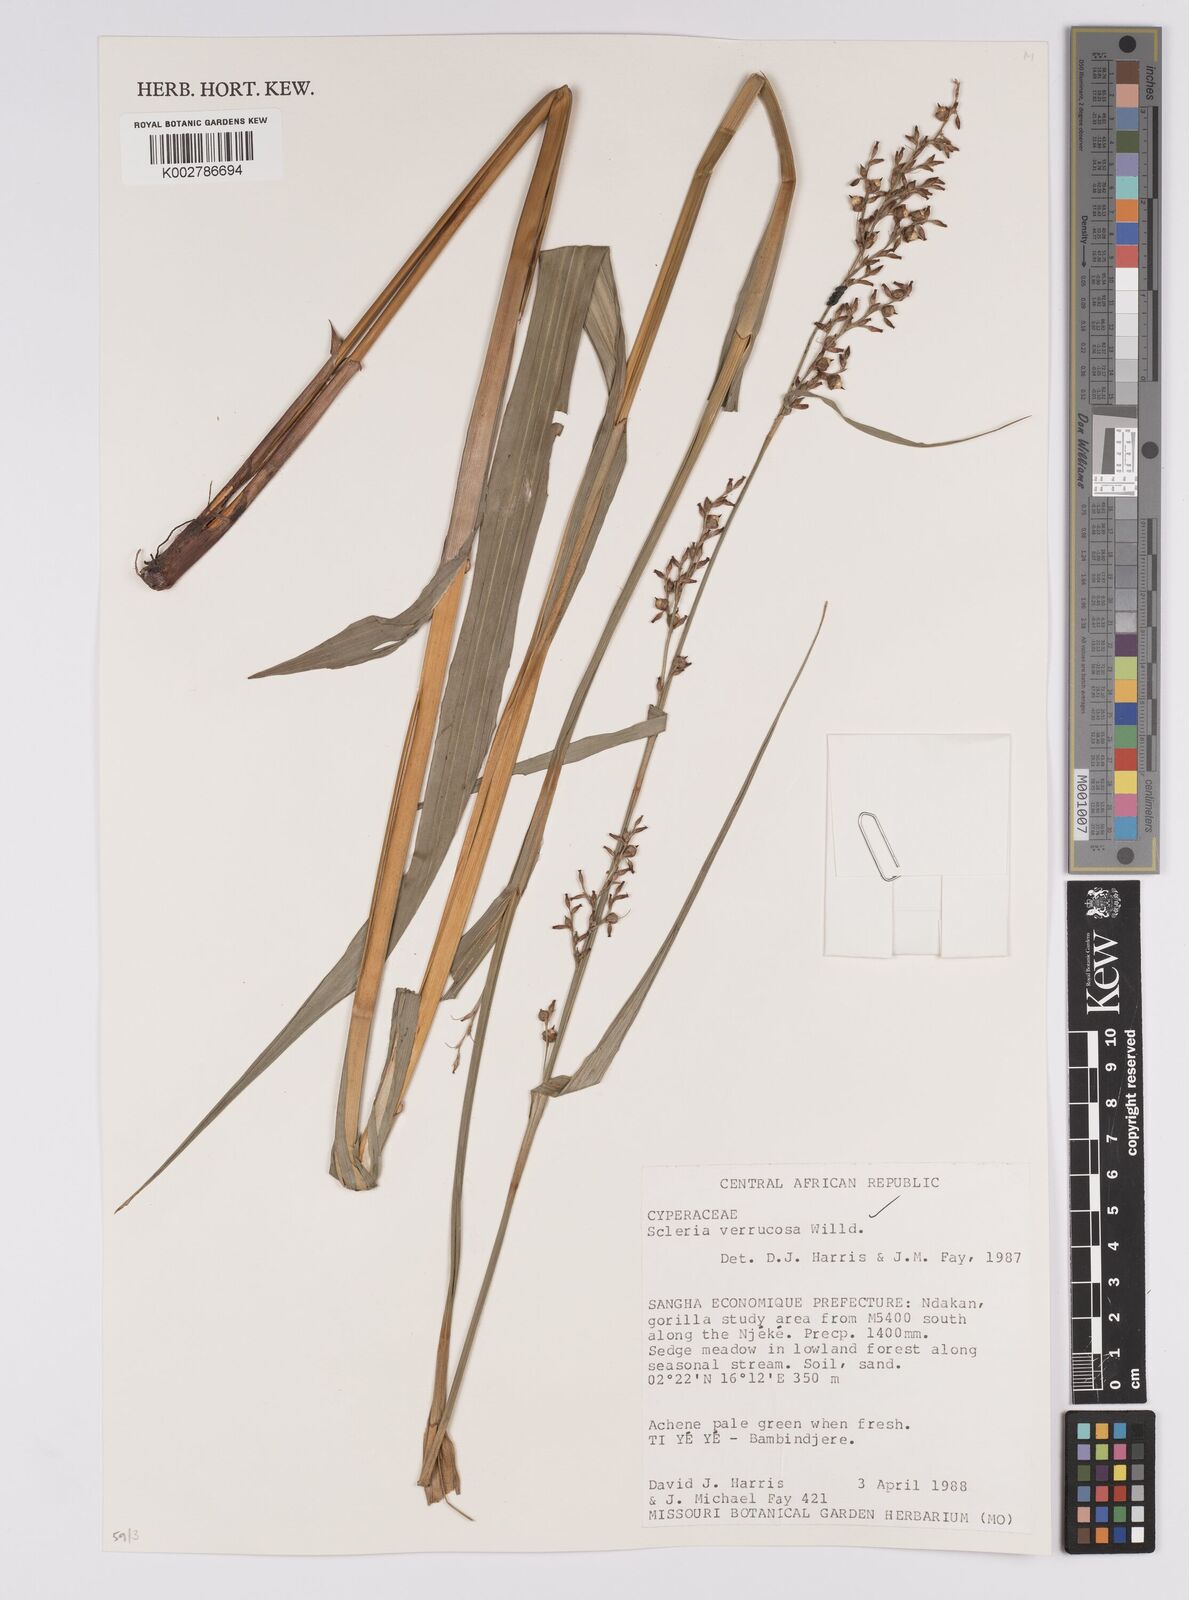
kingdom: Plantae
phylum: Tracheophyta
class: Liliopsida
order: Poales
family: Cyperaceae
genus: Scleria
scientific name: Scleria verrucosa
